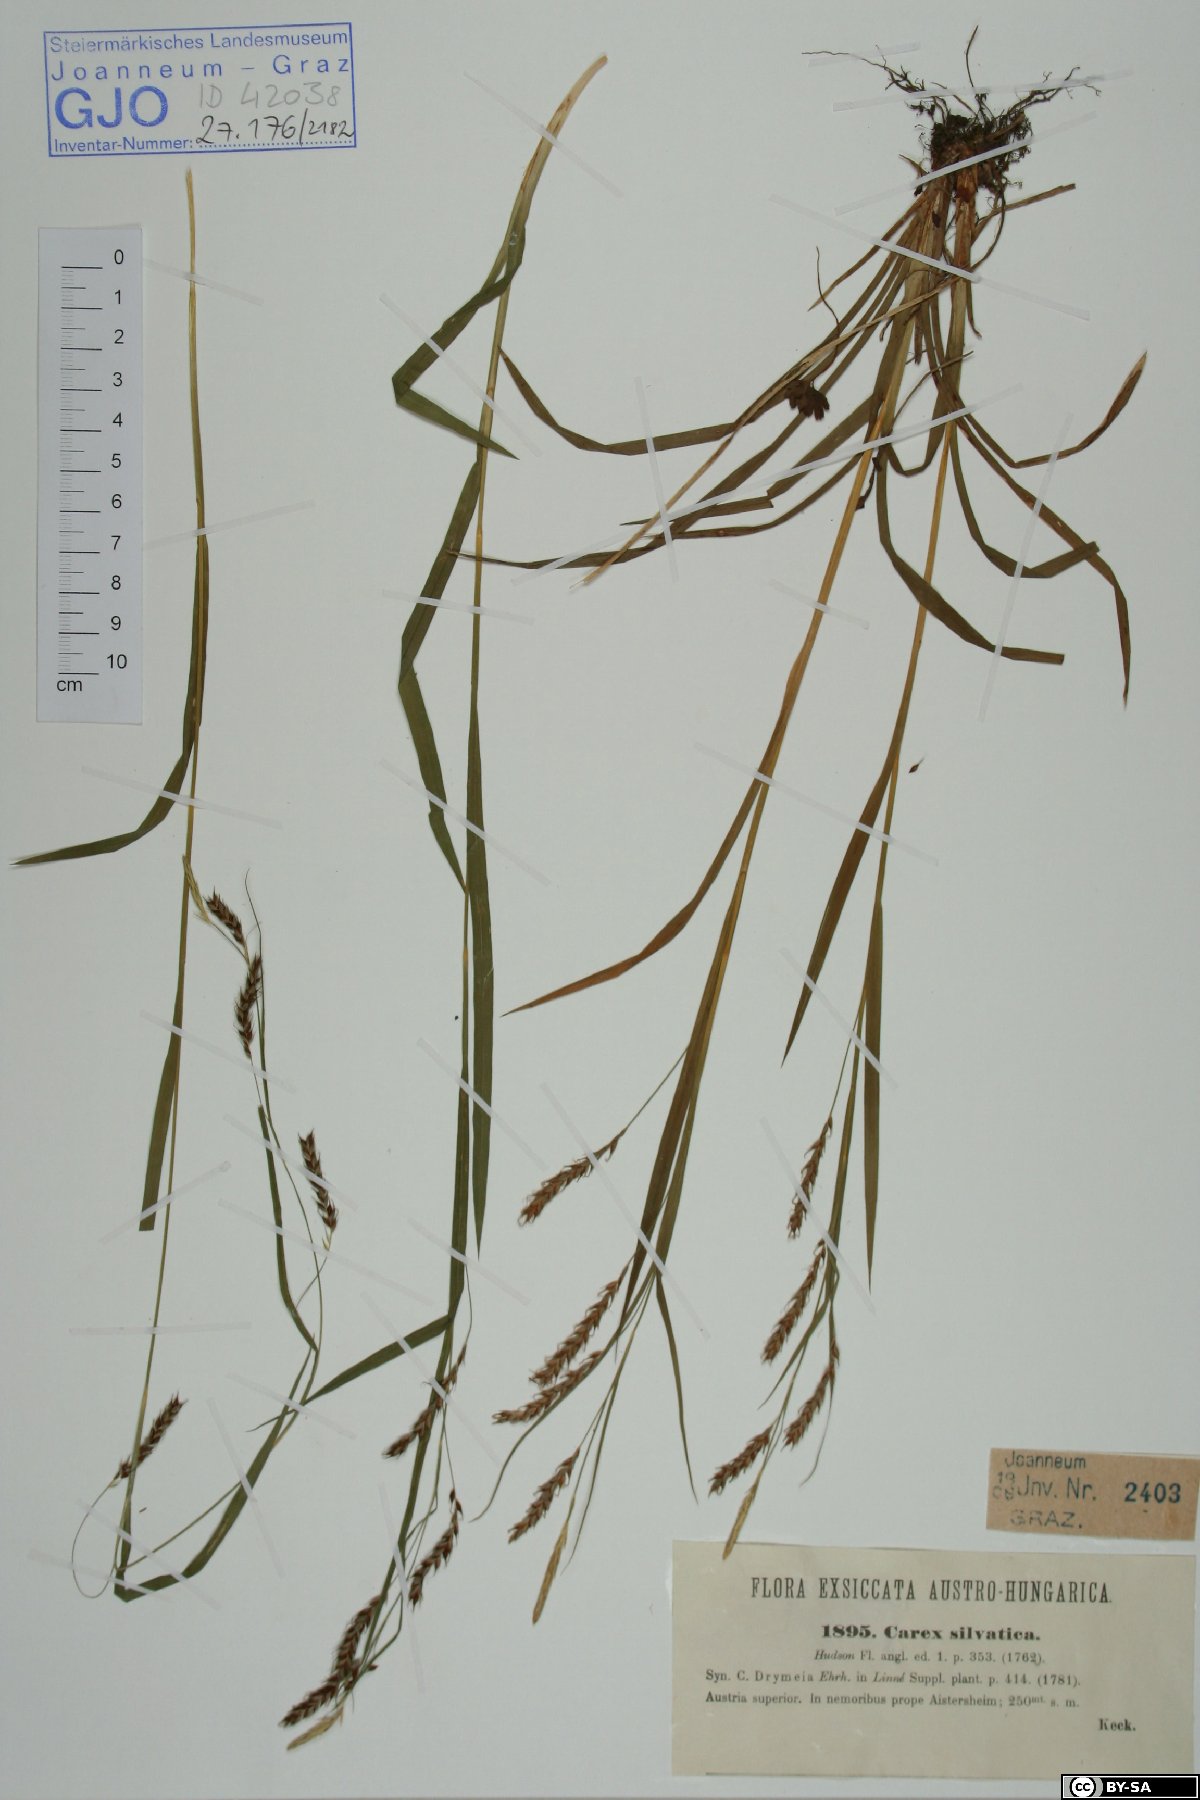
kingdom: Plantae
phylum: Tracheophyta
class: Liliopsida
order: Poales
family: Cyperaceae
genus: Carex
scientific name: Carex sylvatica
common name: Wood-sedge
